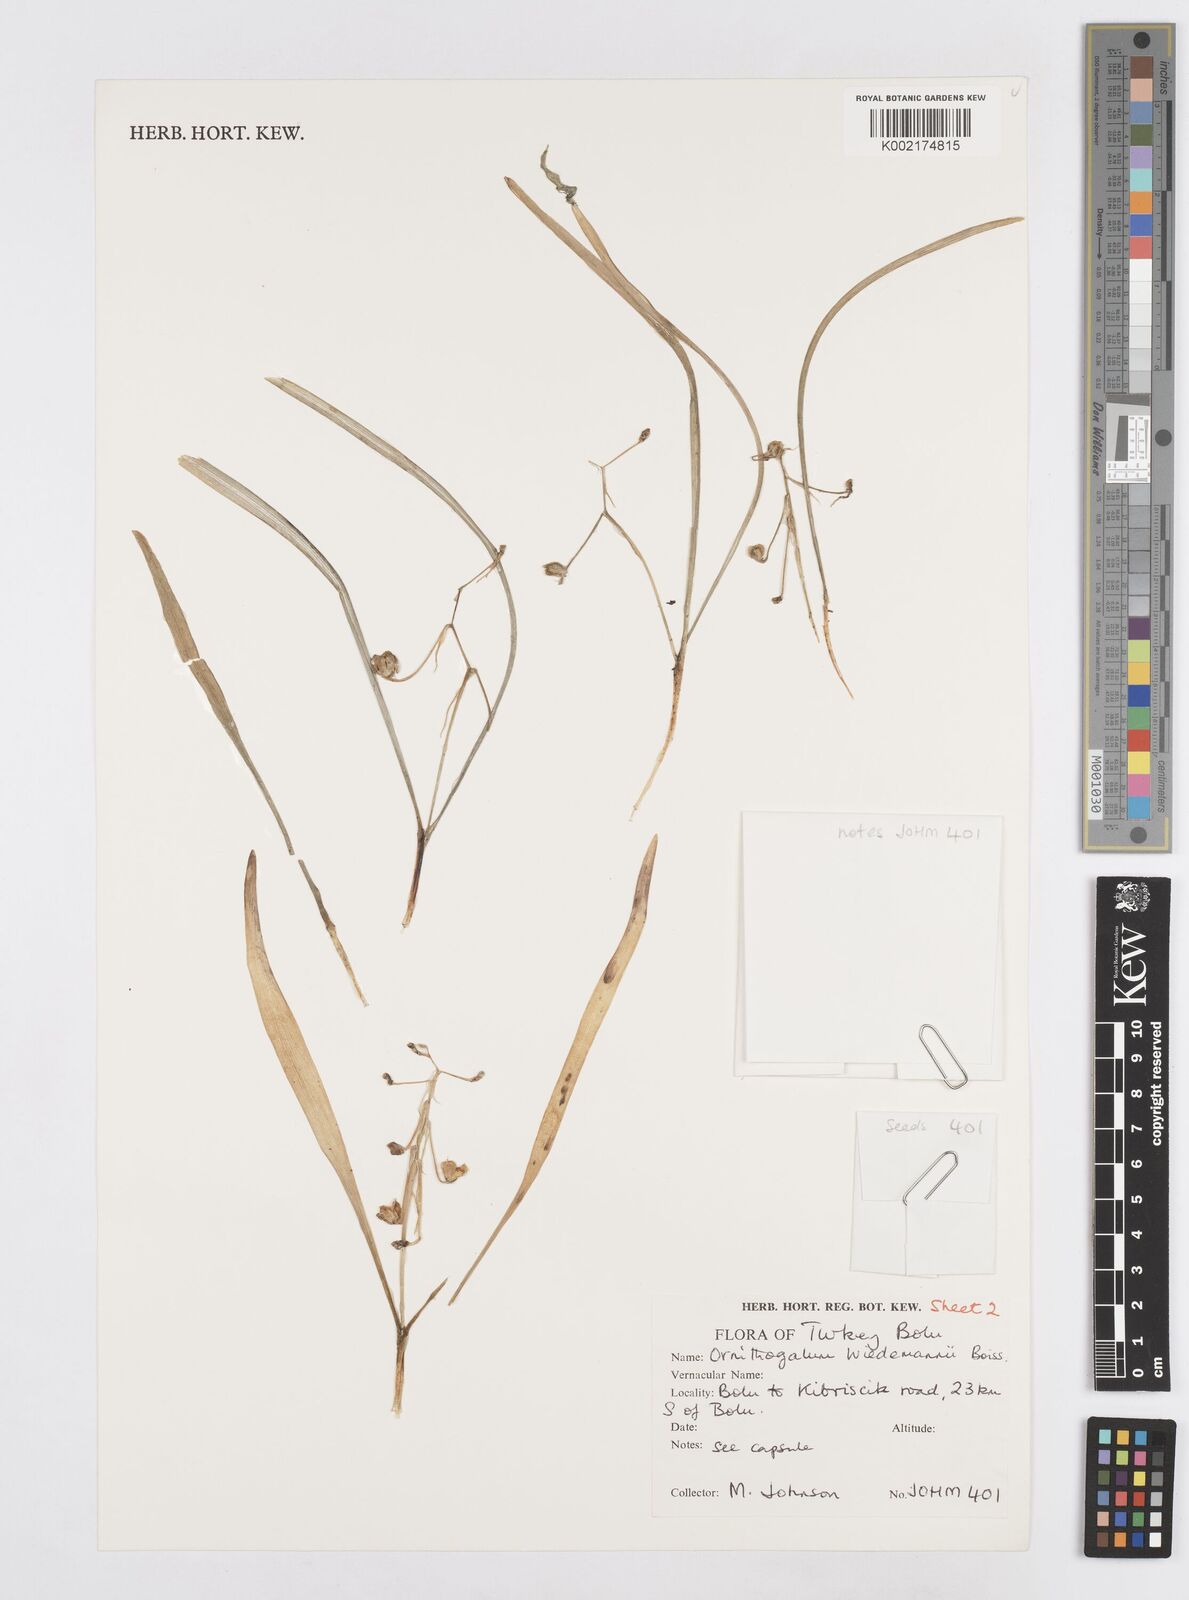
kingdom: Plantae
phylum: Tracheophyta
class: Liliopsida
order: Asparagales
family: Asparagaceae
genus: Ornithogalum
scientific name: Ornithogalum wiedemannii
